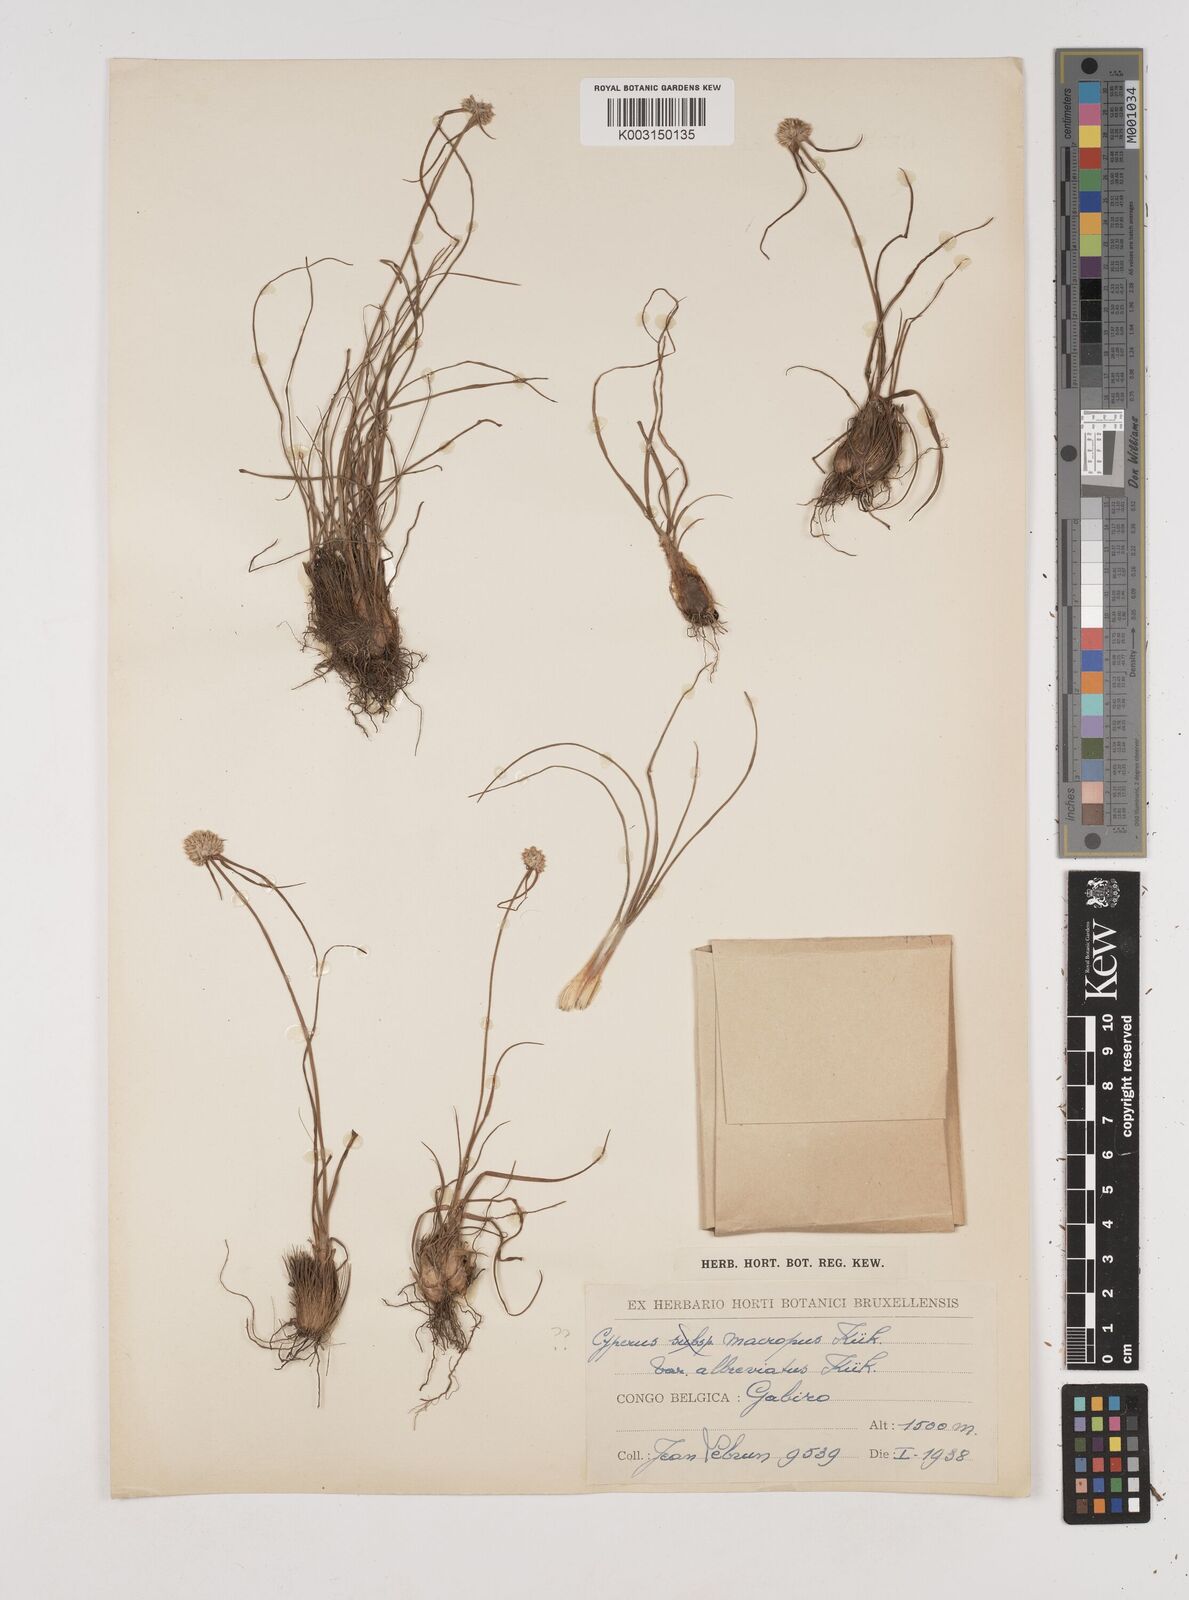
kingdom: Plantae
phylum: Tracheophyta
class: Liliopsida
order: Poales
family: Cyperaceae
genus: Cyperus
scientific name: Cyperus mollipes
